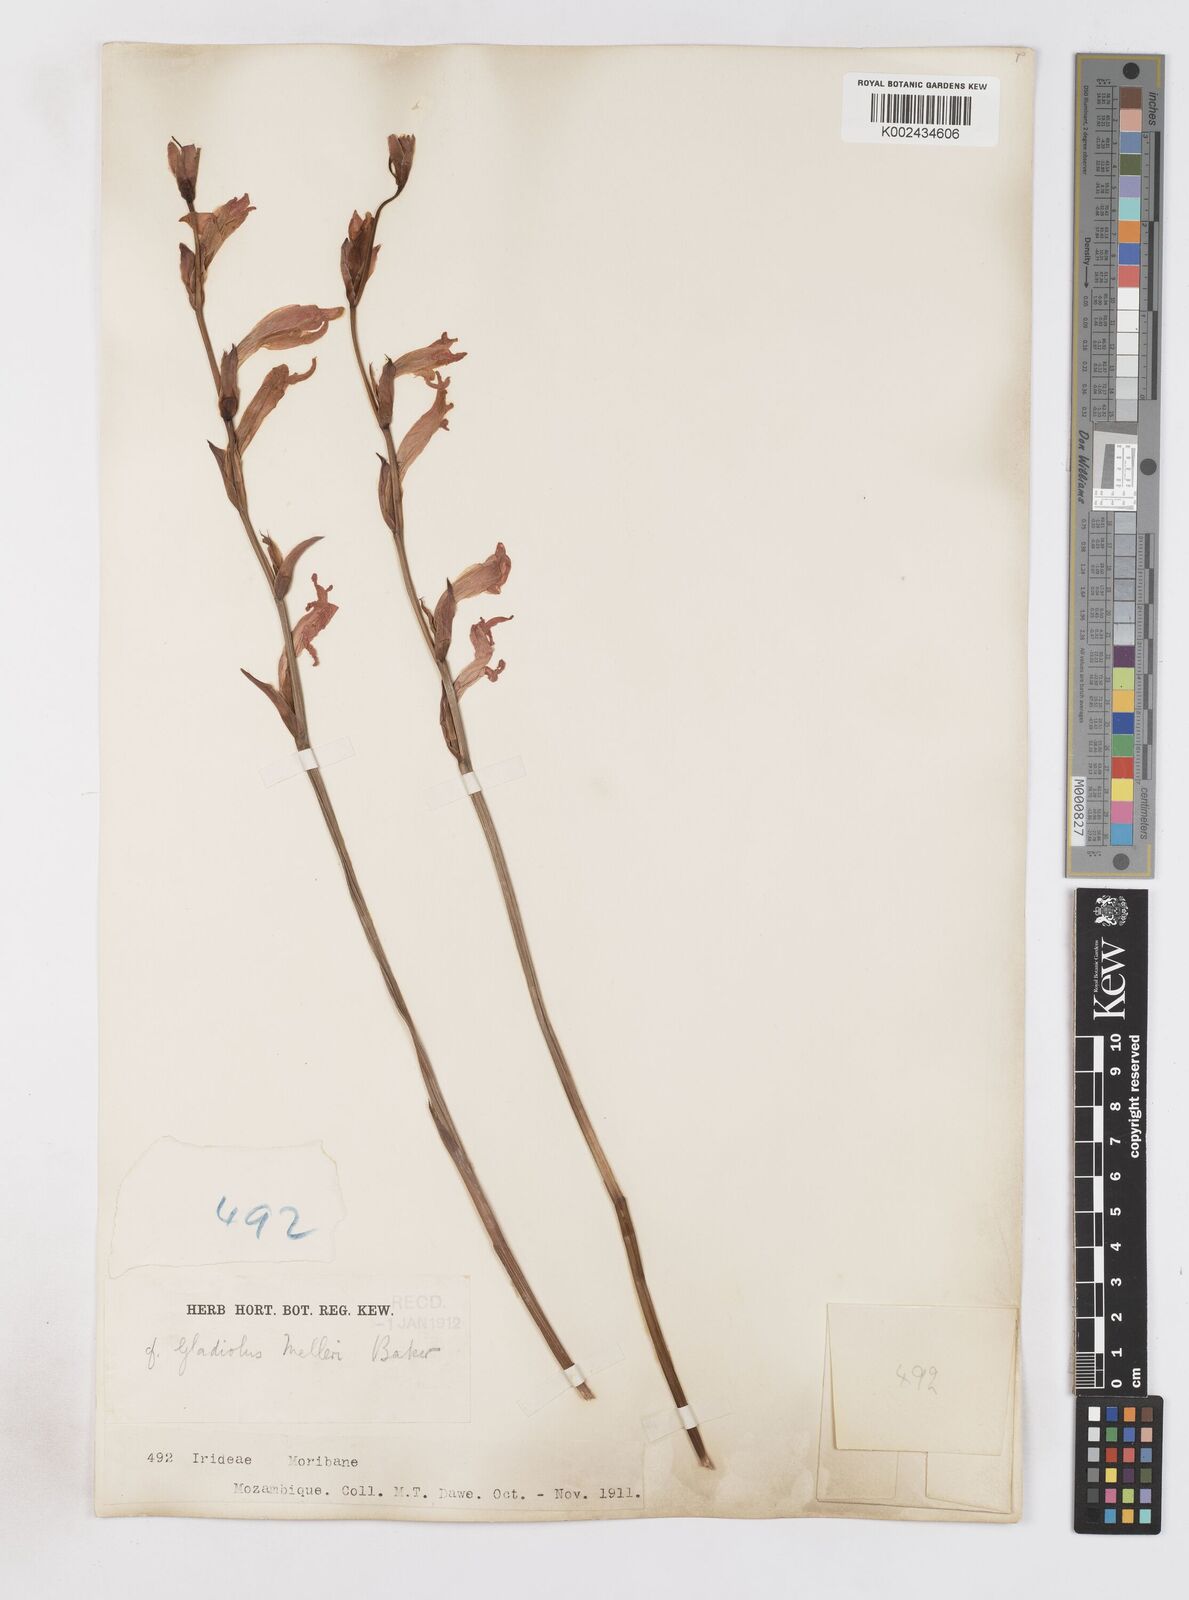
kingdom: Plantae
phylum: Tracheophyta
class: Liliopsida
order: Asparagales
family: Iridaceae
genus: Gladiolus
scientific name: Gladiolus melleri
